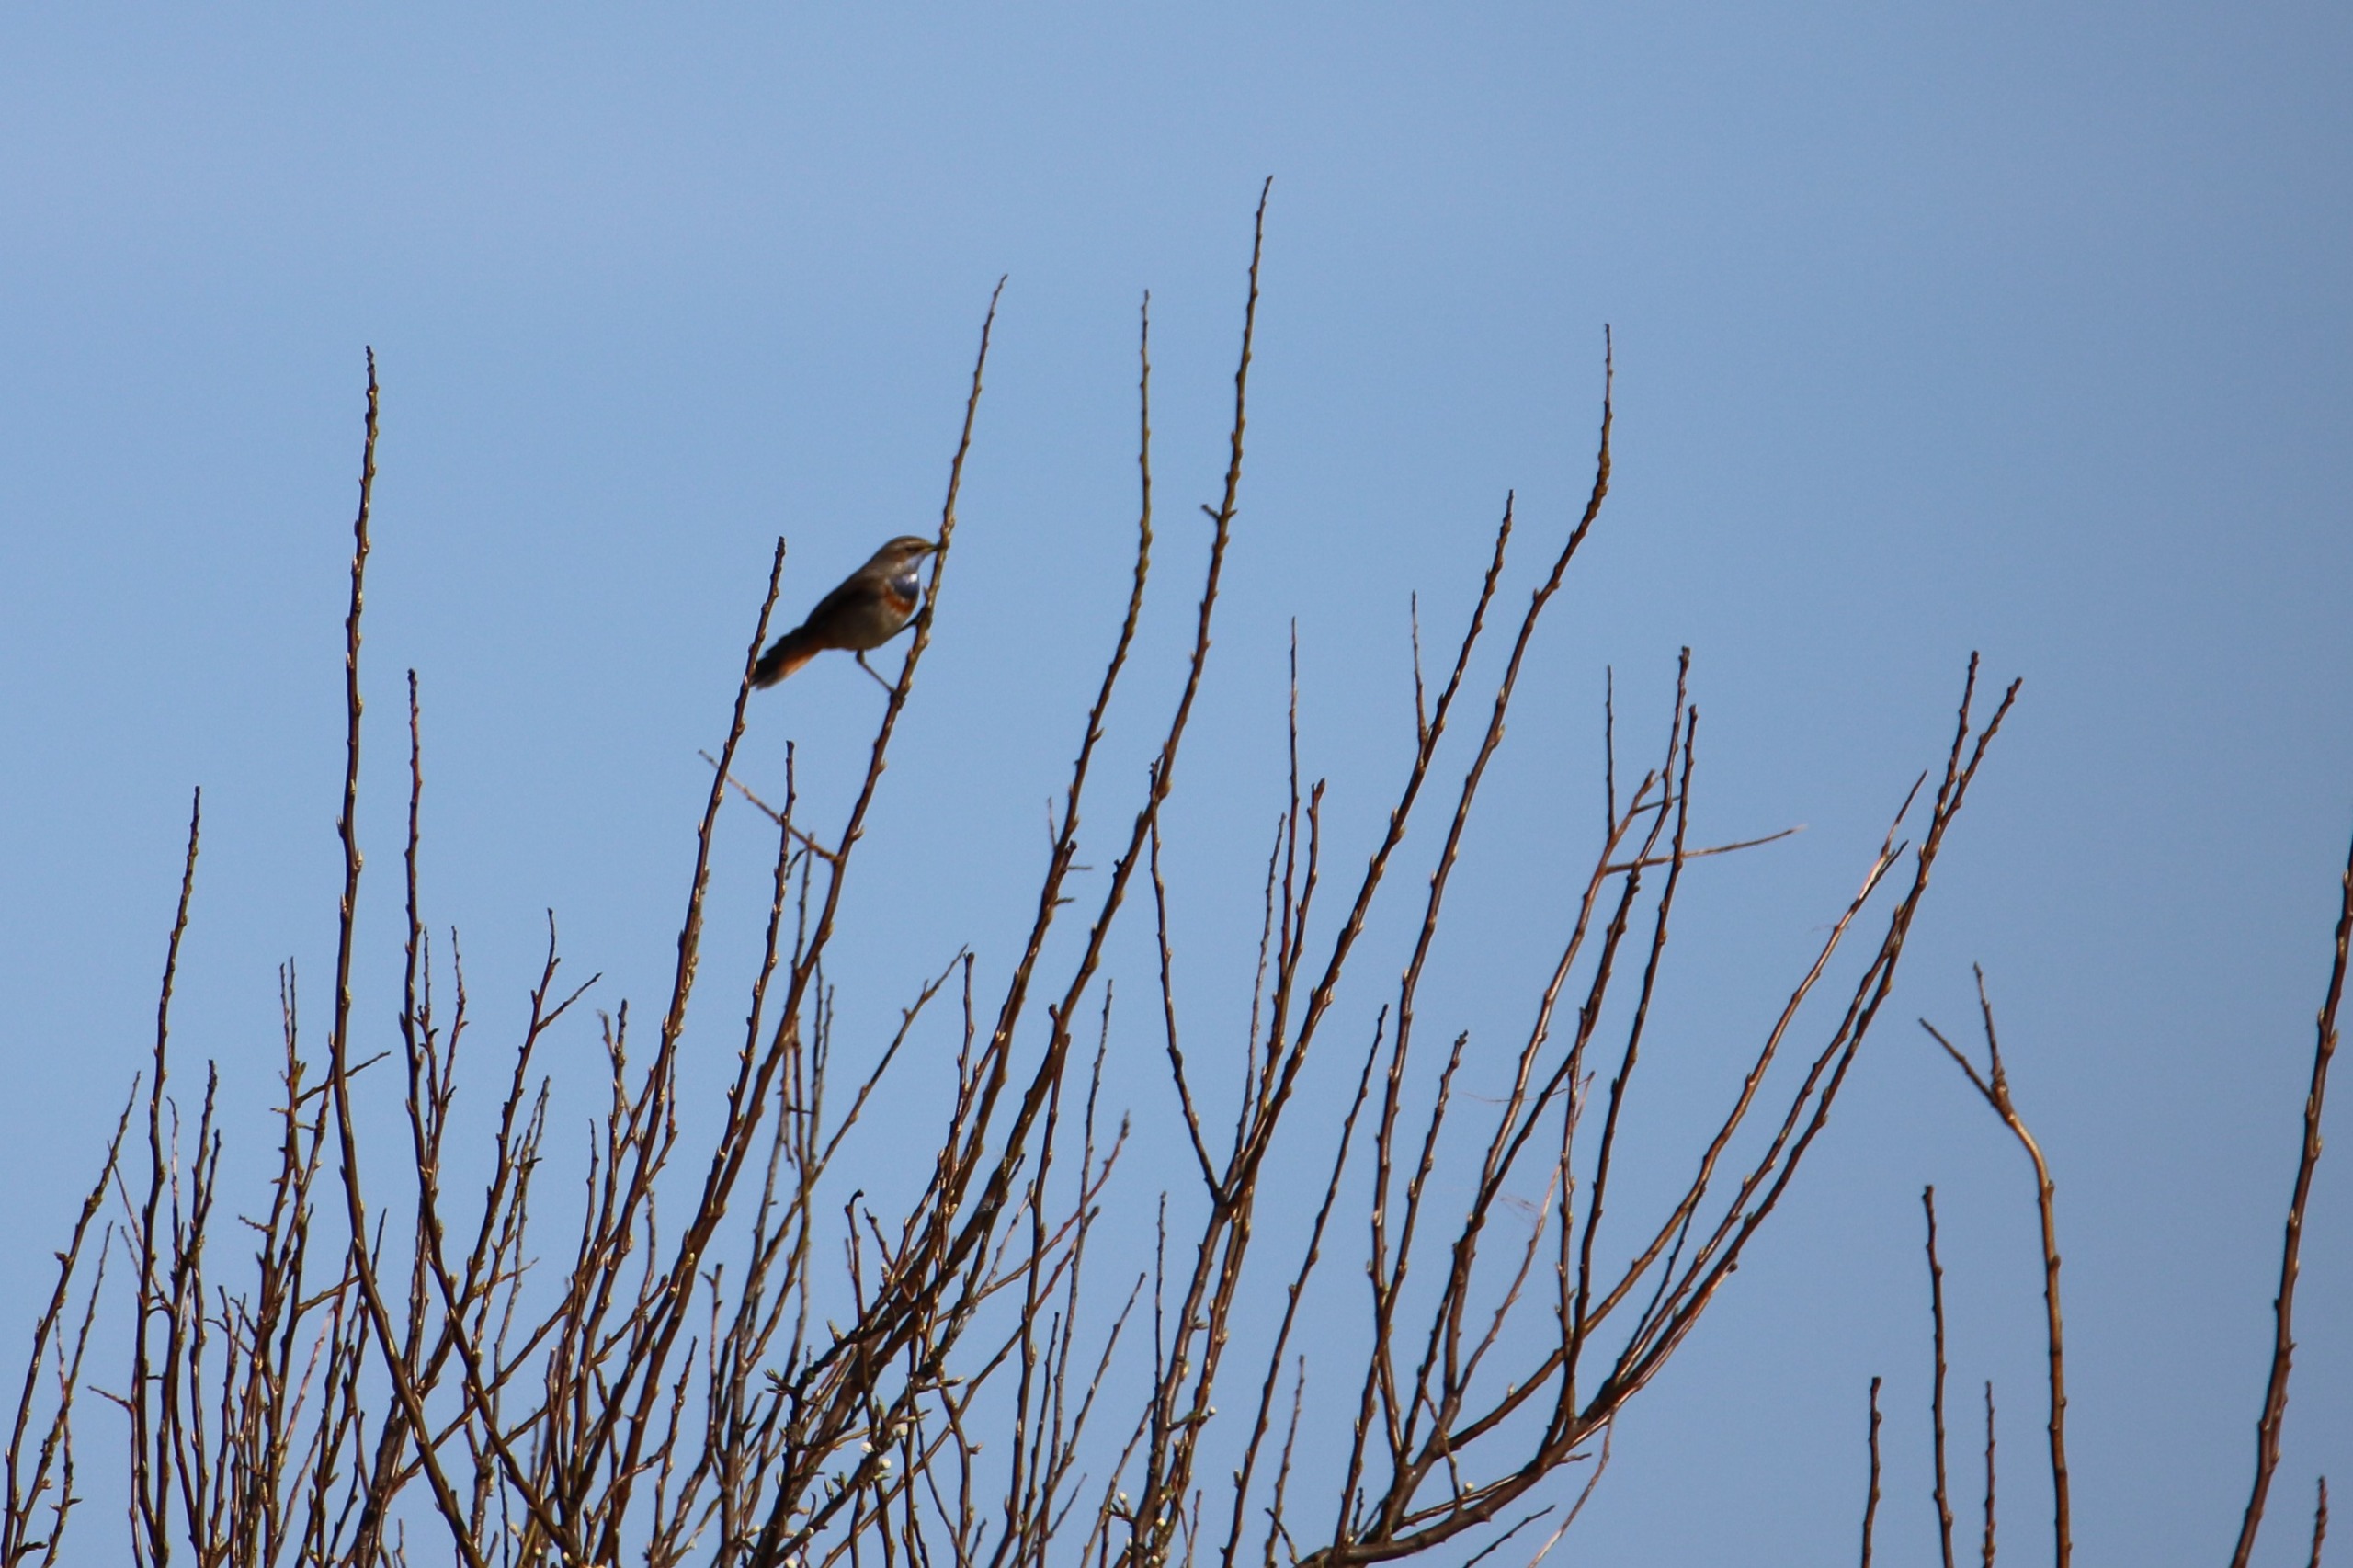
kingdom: Animalia
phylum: Chordata
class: Aves
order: Passeriformes
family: Muscicapidae
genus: Luscinia
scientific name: Luscinia svecica
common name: Blåhals
